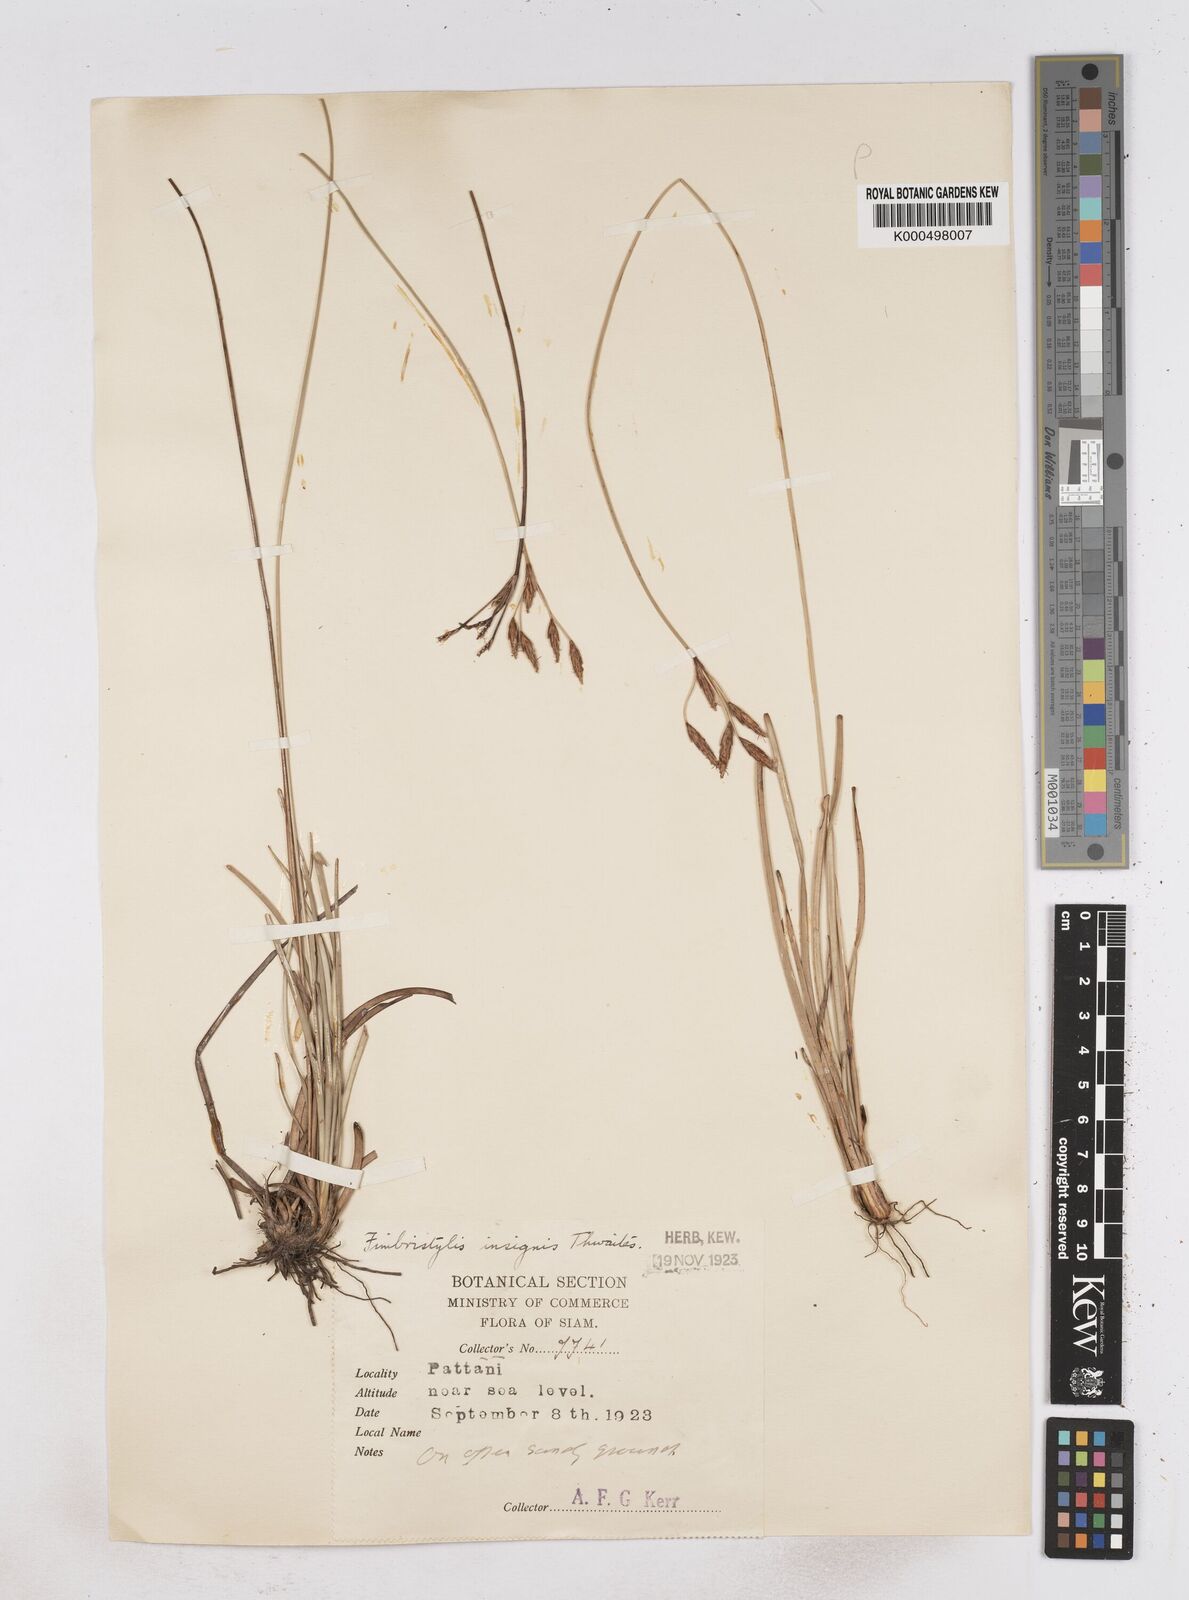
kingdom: Plantae
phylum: Tracheophyta
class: Liliopsida
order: Poales
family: Cyperaceae
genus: Fimbristylis
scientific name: Fimbristylis insignis
